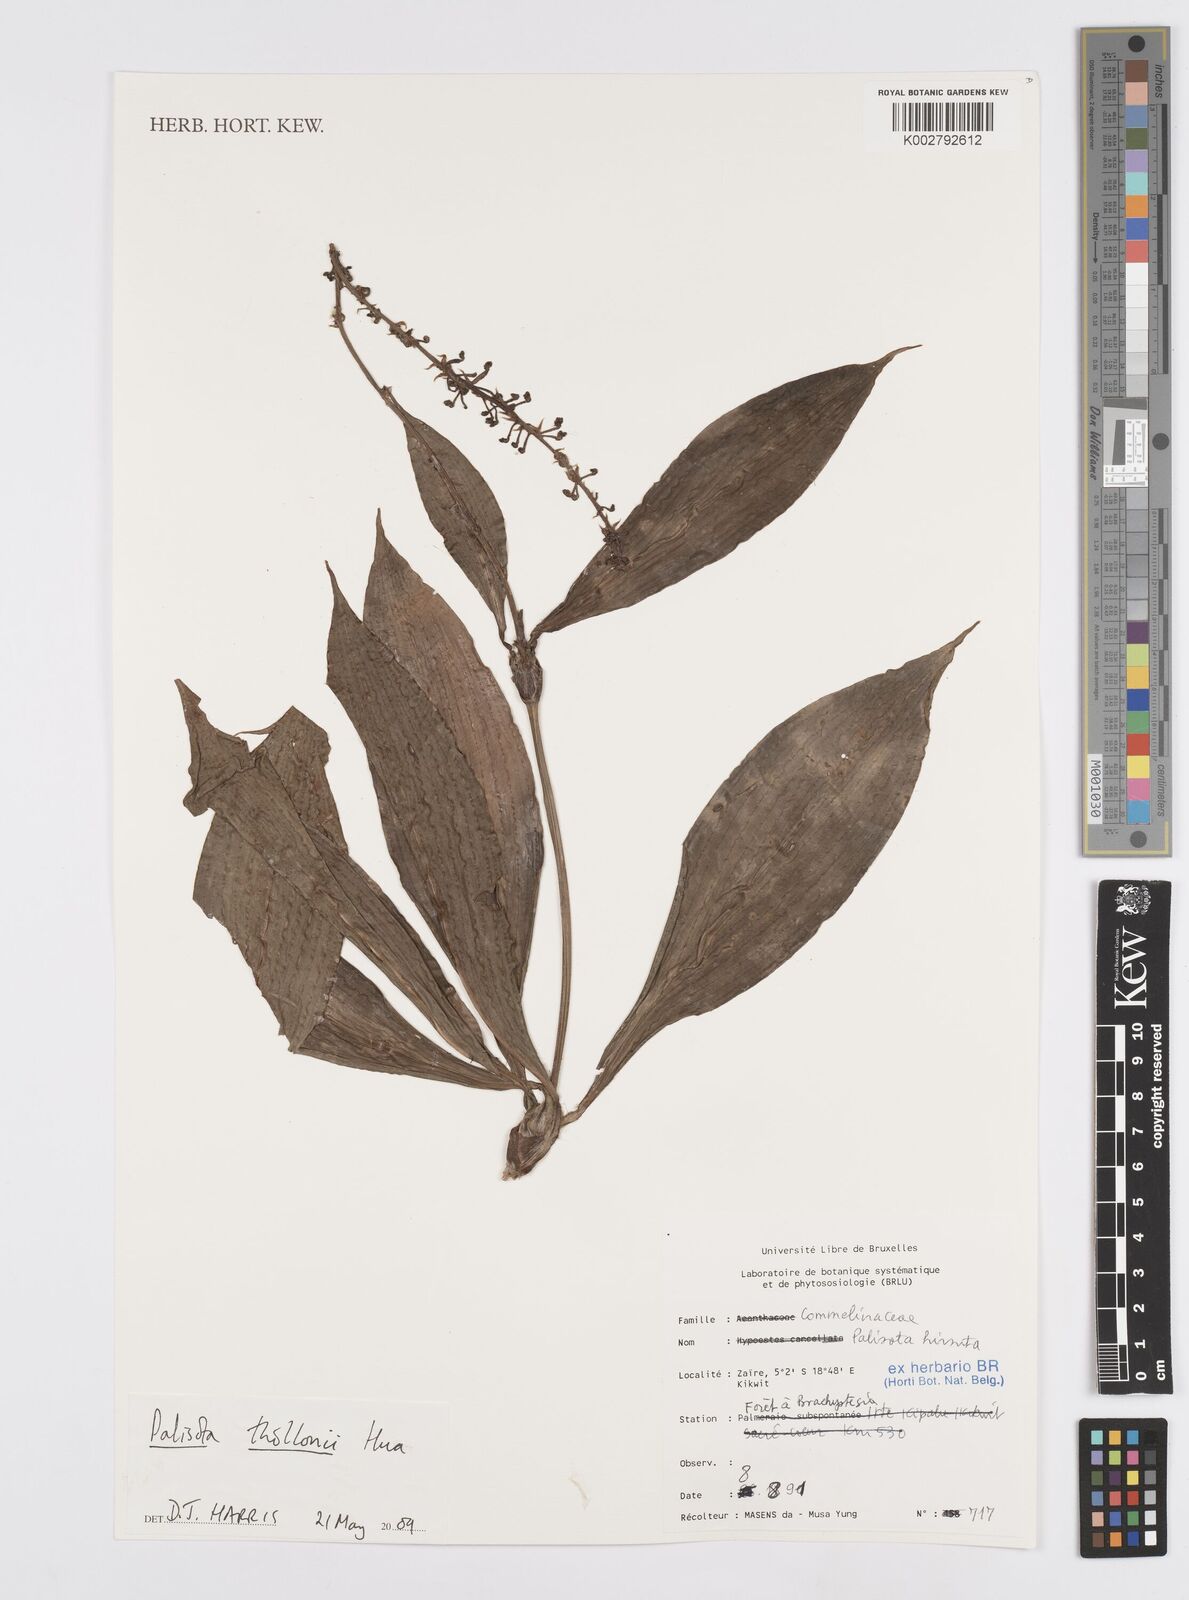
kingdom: Plantae
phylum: Tracheophyta
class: Liliopsida
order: Commelinales
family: Commelinaceae
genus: Palisota
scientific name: Palisota thollonii
